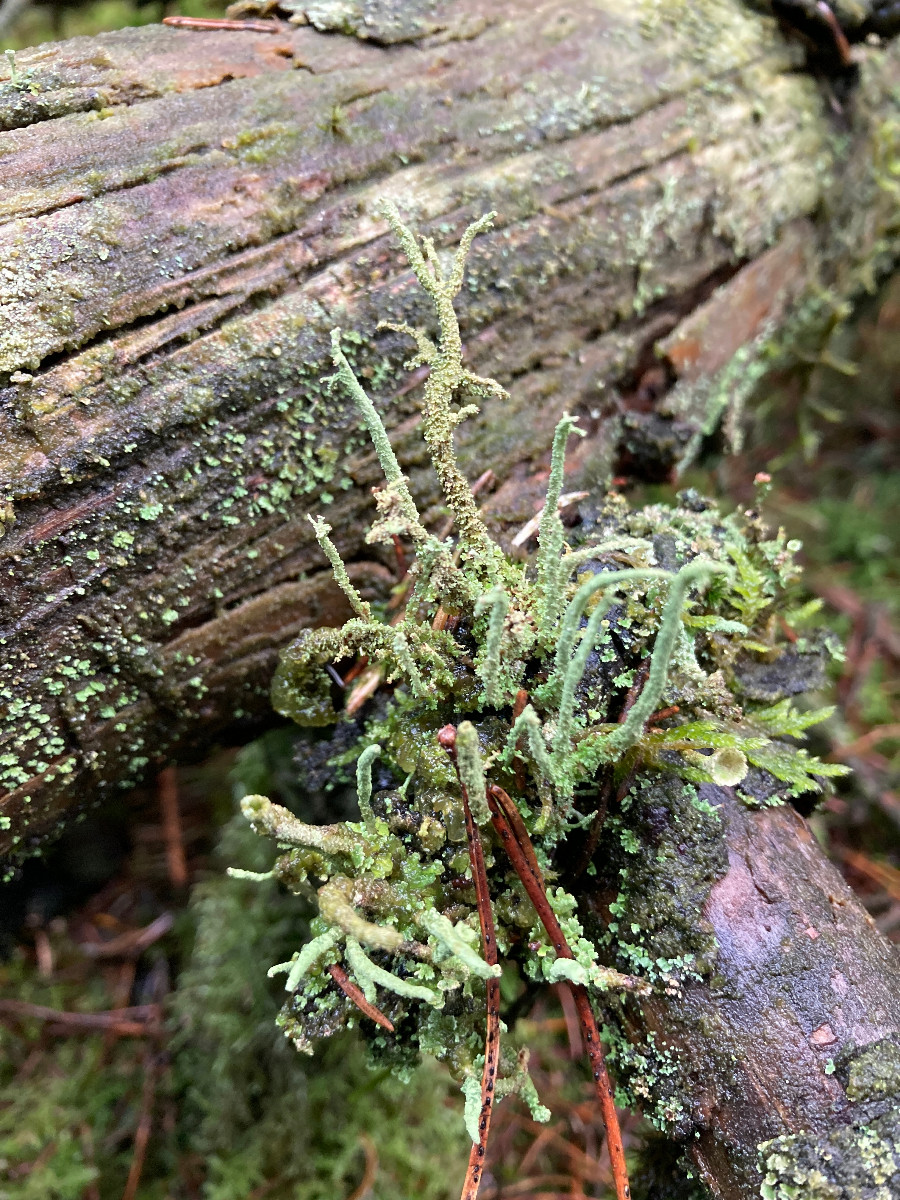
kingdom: Fungi
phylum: Ascomycota
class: Lecanoromycetes
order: Lecanorales
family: Cladoniaceae
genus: Cladonia
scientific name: Cladonia scabriuscula
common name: ru bægerlav
